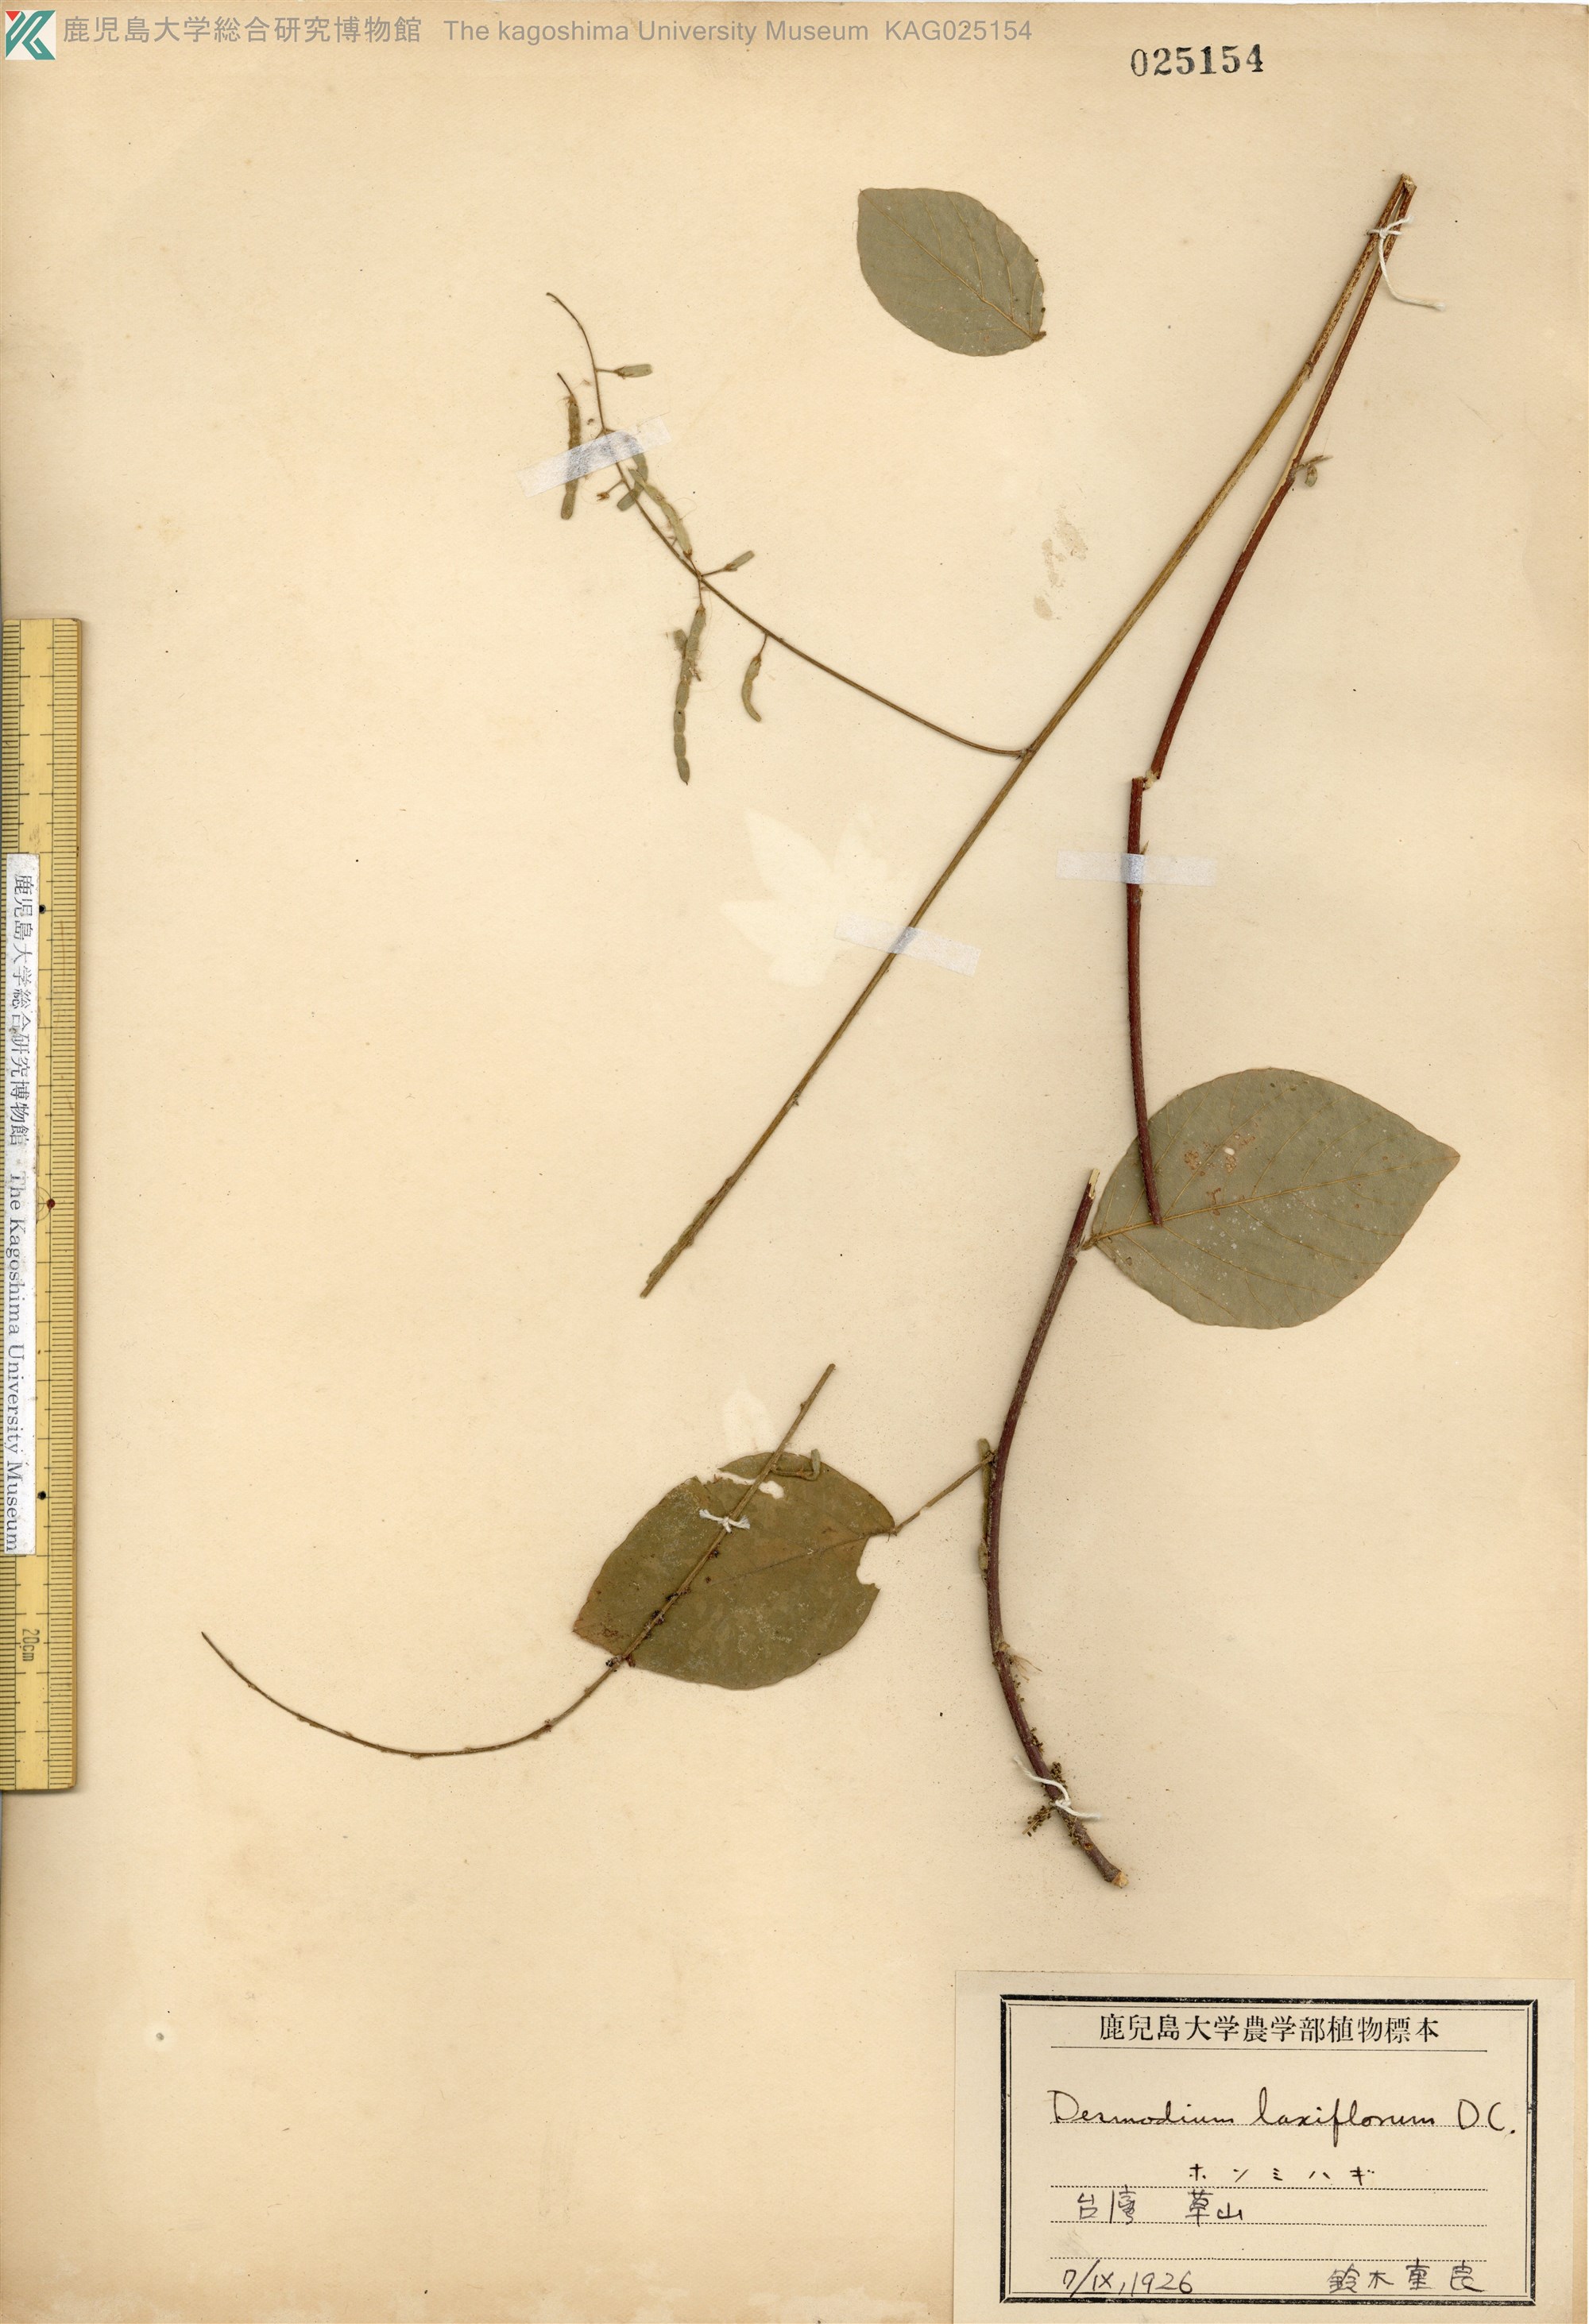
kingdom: Plantae
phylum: Tracheophyta
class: Magnoliopsida
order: Fabales
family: Fabaceae
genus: Sohmaea
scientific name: Sohmaea laxiflora
